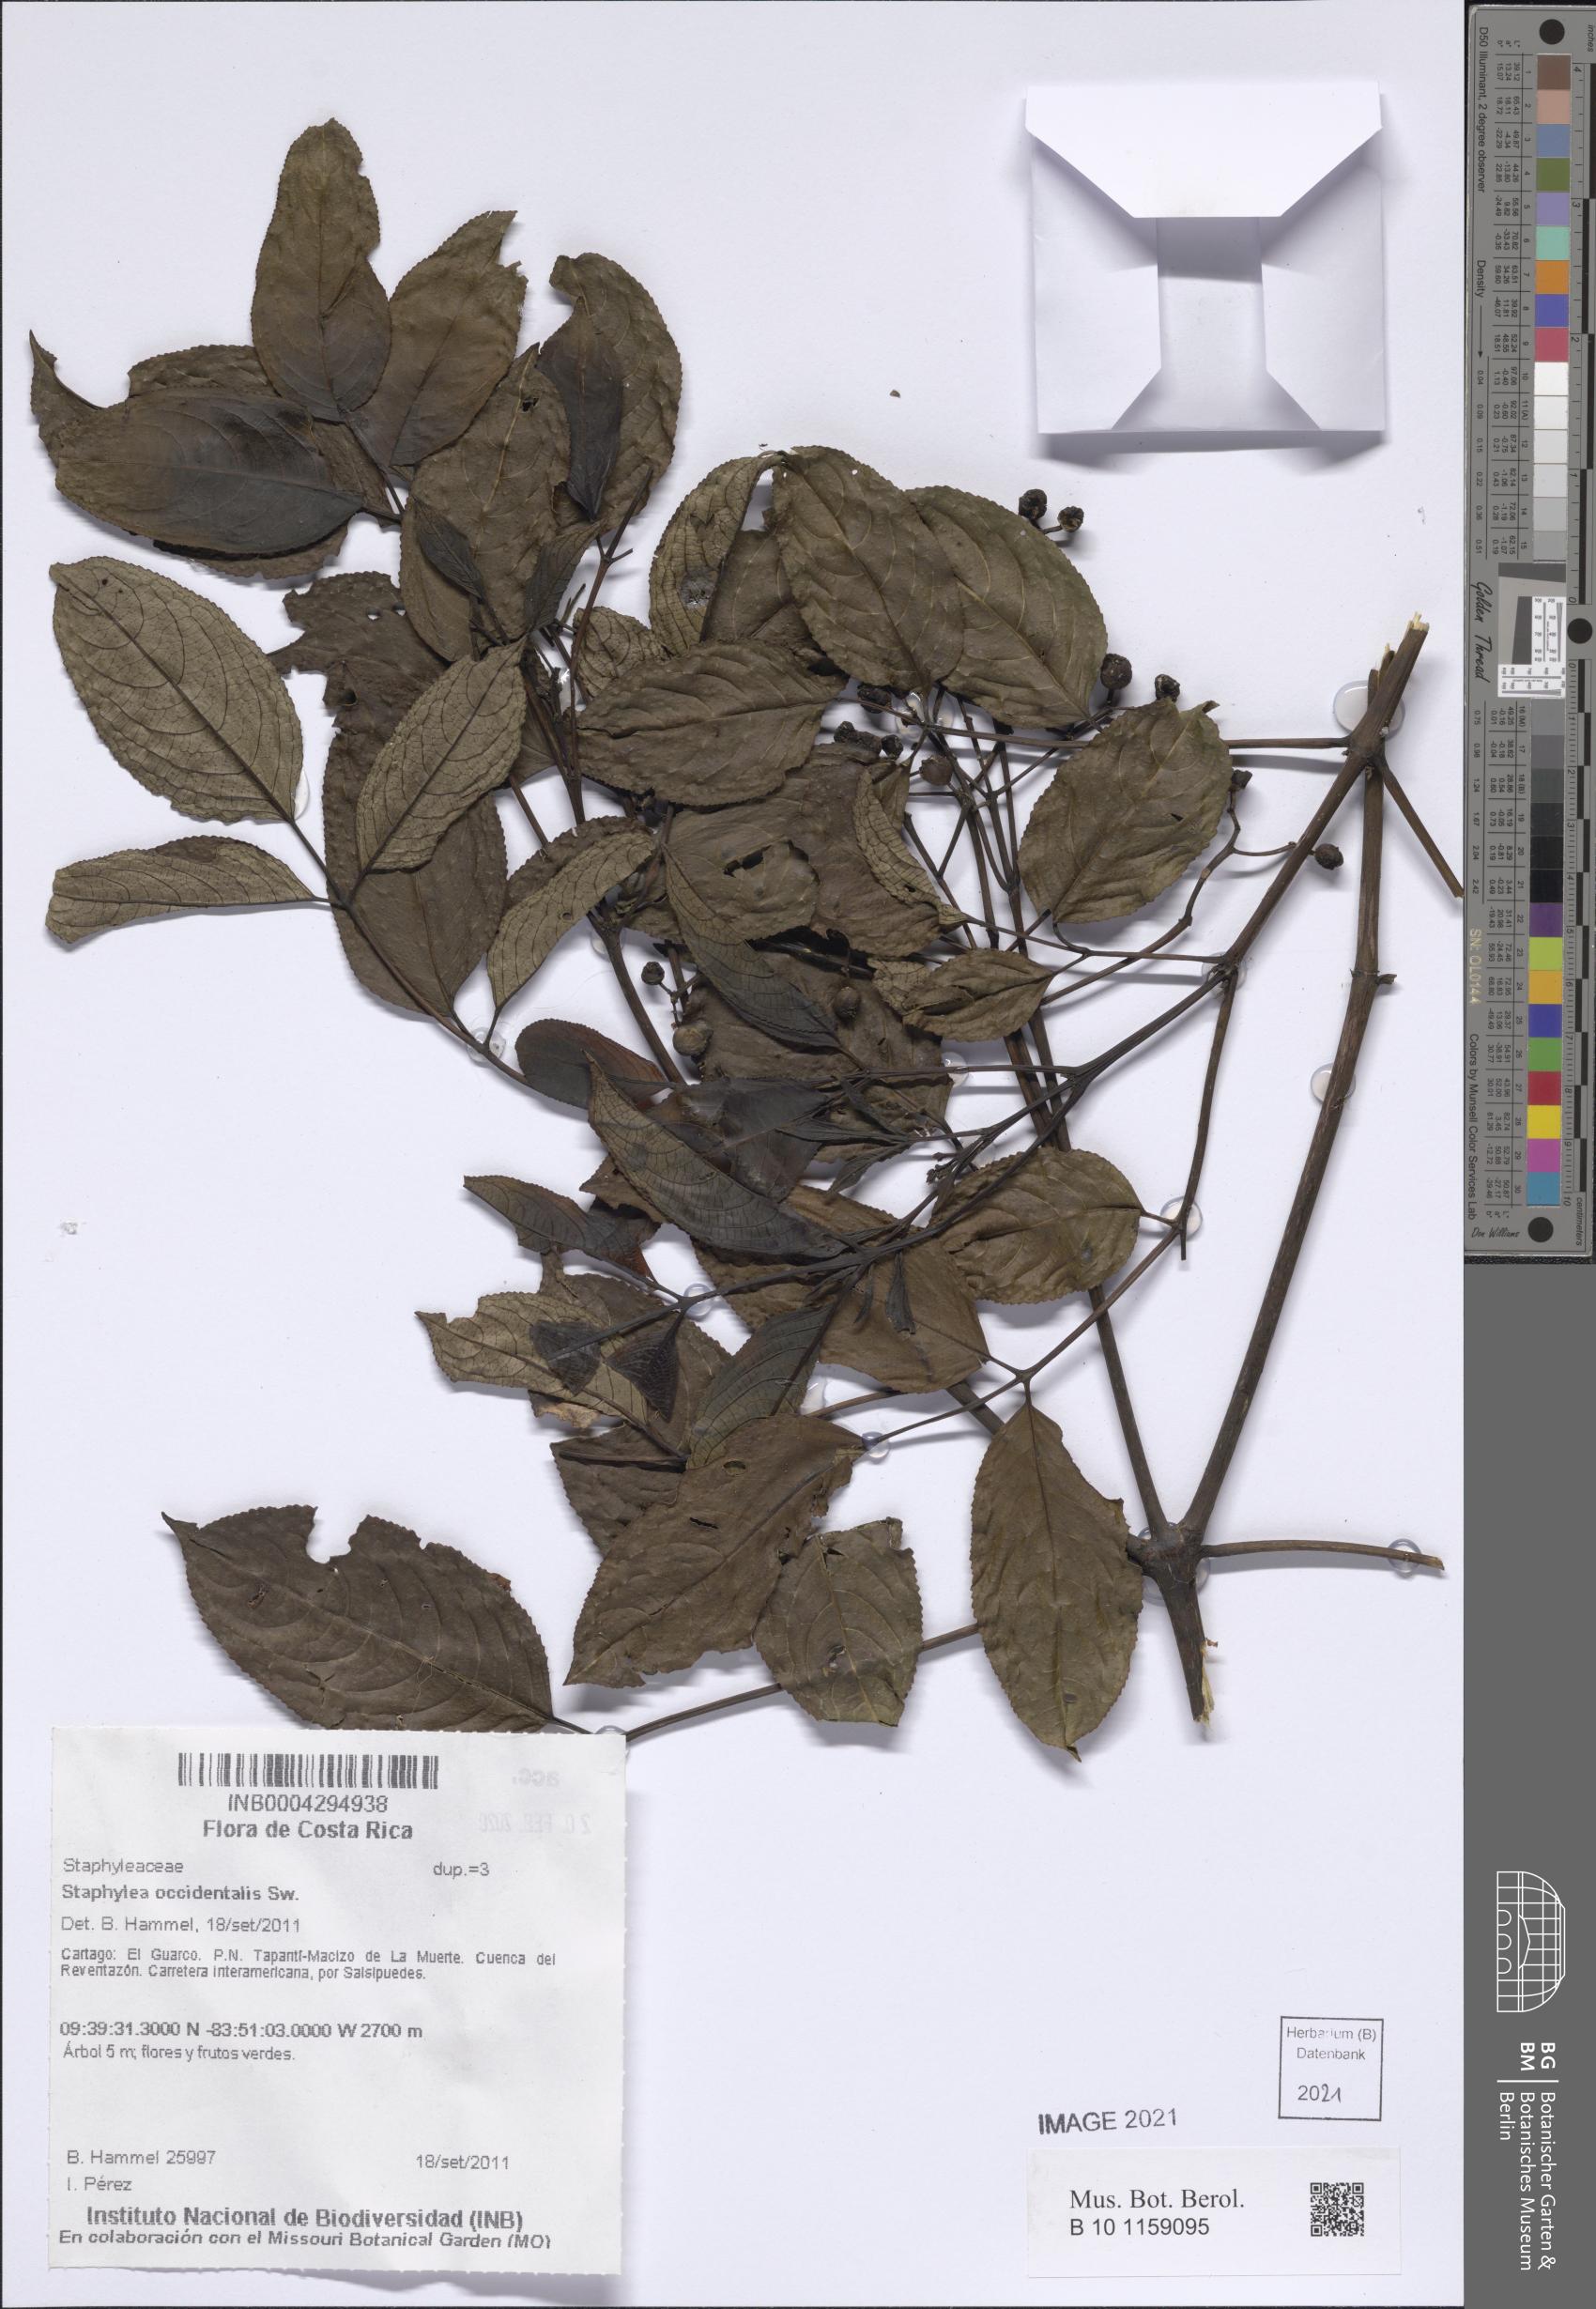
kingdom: Plantae
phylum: Tracheophyta
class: Magnoliopsida
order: Crossosomatales
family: Staphyleaceae
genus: Turpinia
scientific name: Turpinia occidentalis
